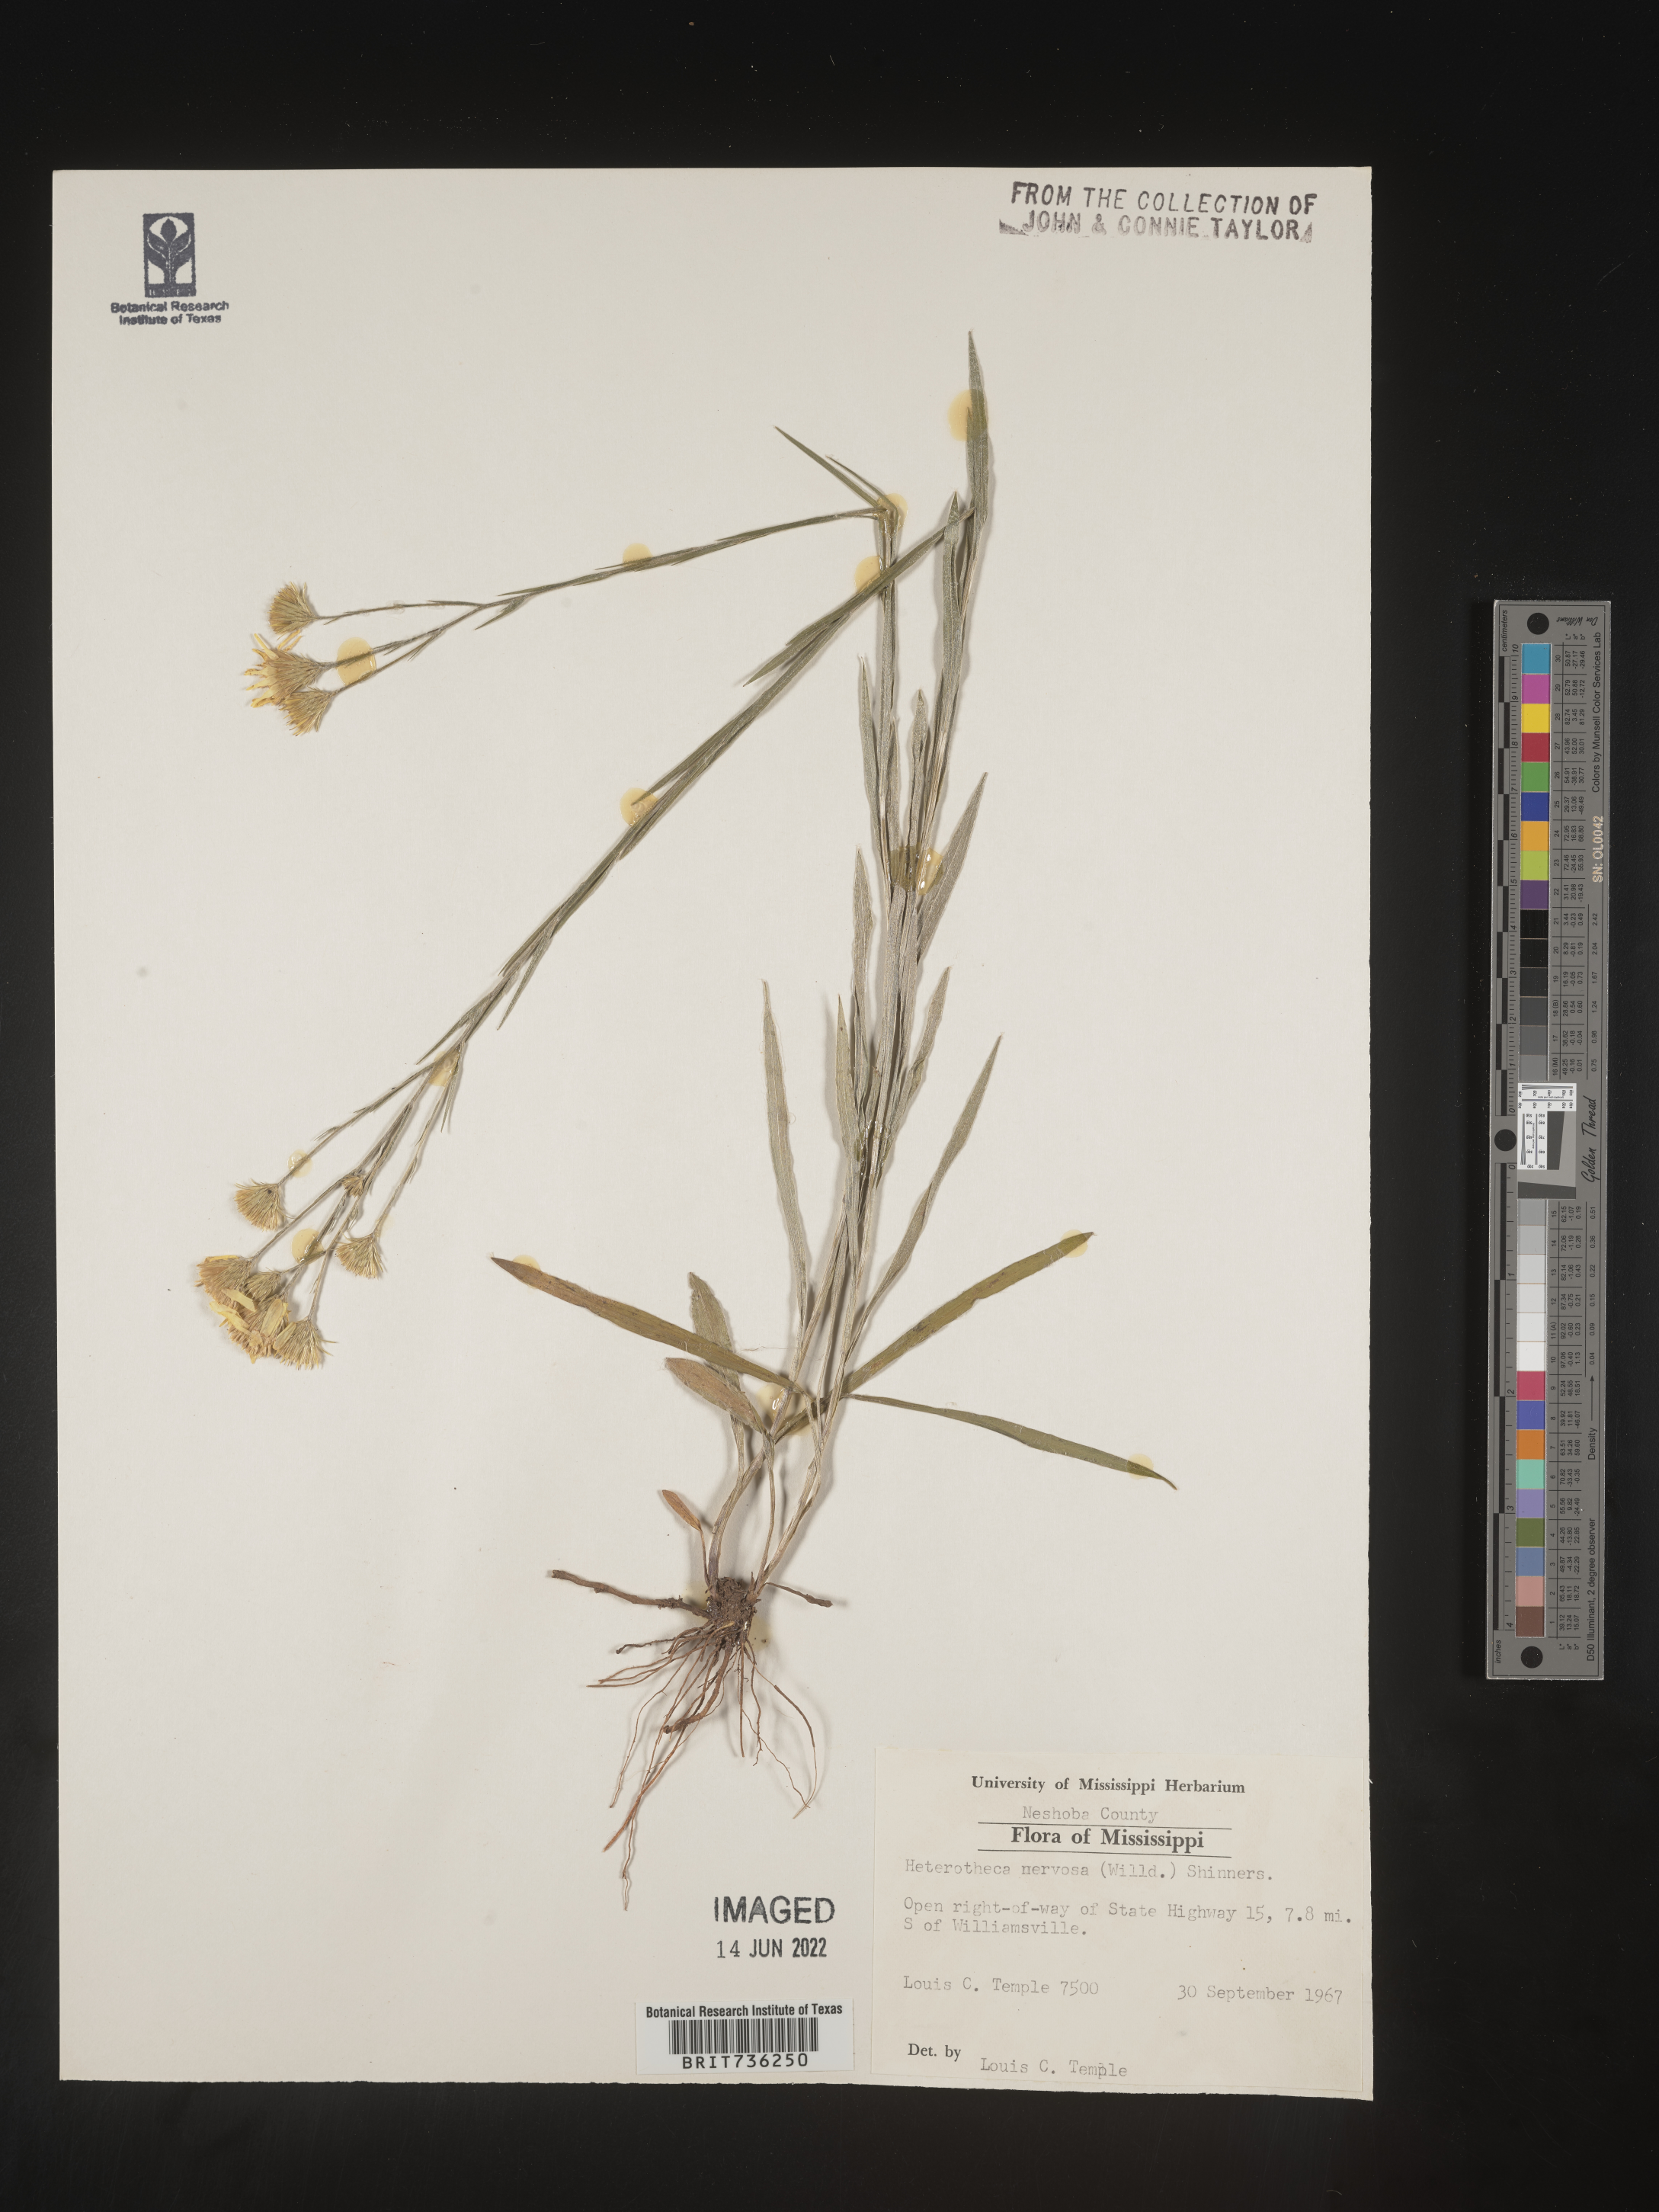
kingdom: Plantae
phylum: Tracheophyta
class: Magnoliopsida
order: Asterales
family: Asteraceae
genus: Pityopsis
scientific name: Pityopsis graminifolia
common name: Grass-leaf golden-aster
